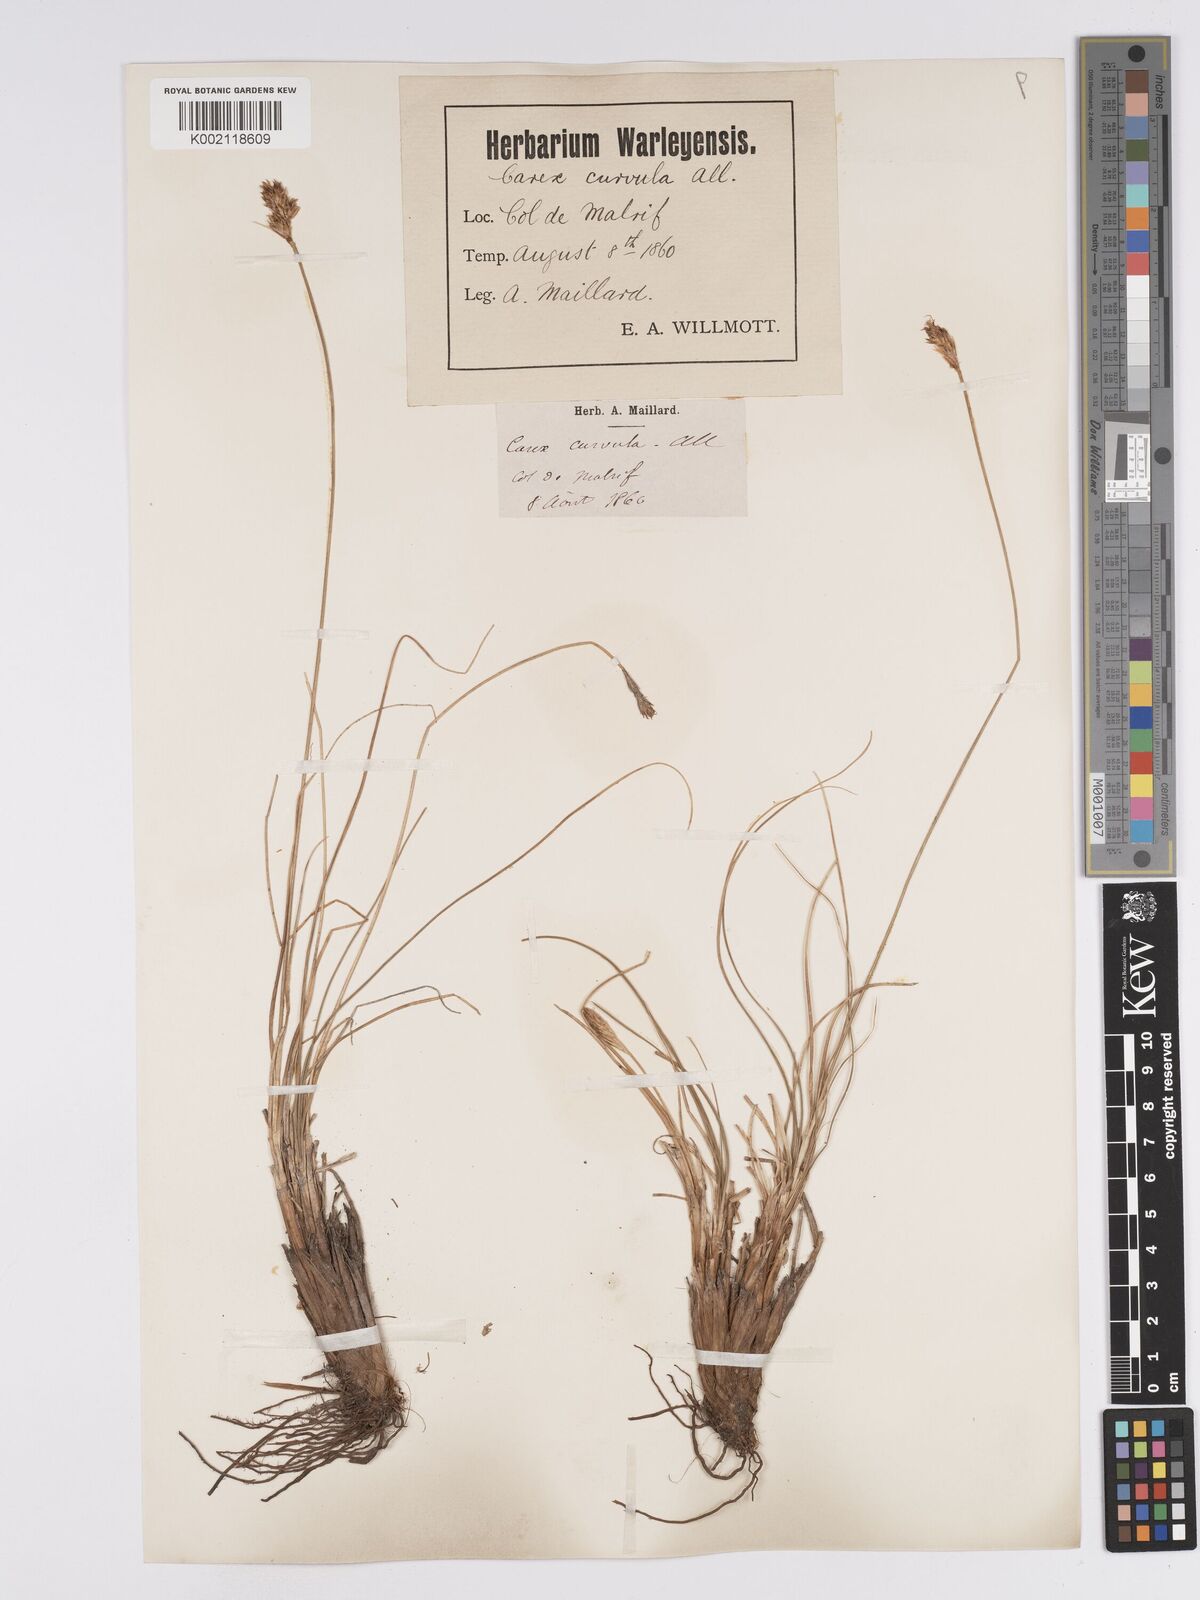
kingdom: Plantae
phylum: Tracheophyta
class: Liliopsida
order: Poales
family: Cyperaceae
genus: Carex
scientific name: Carex curvula
